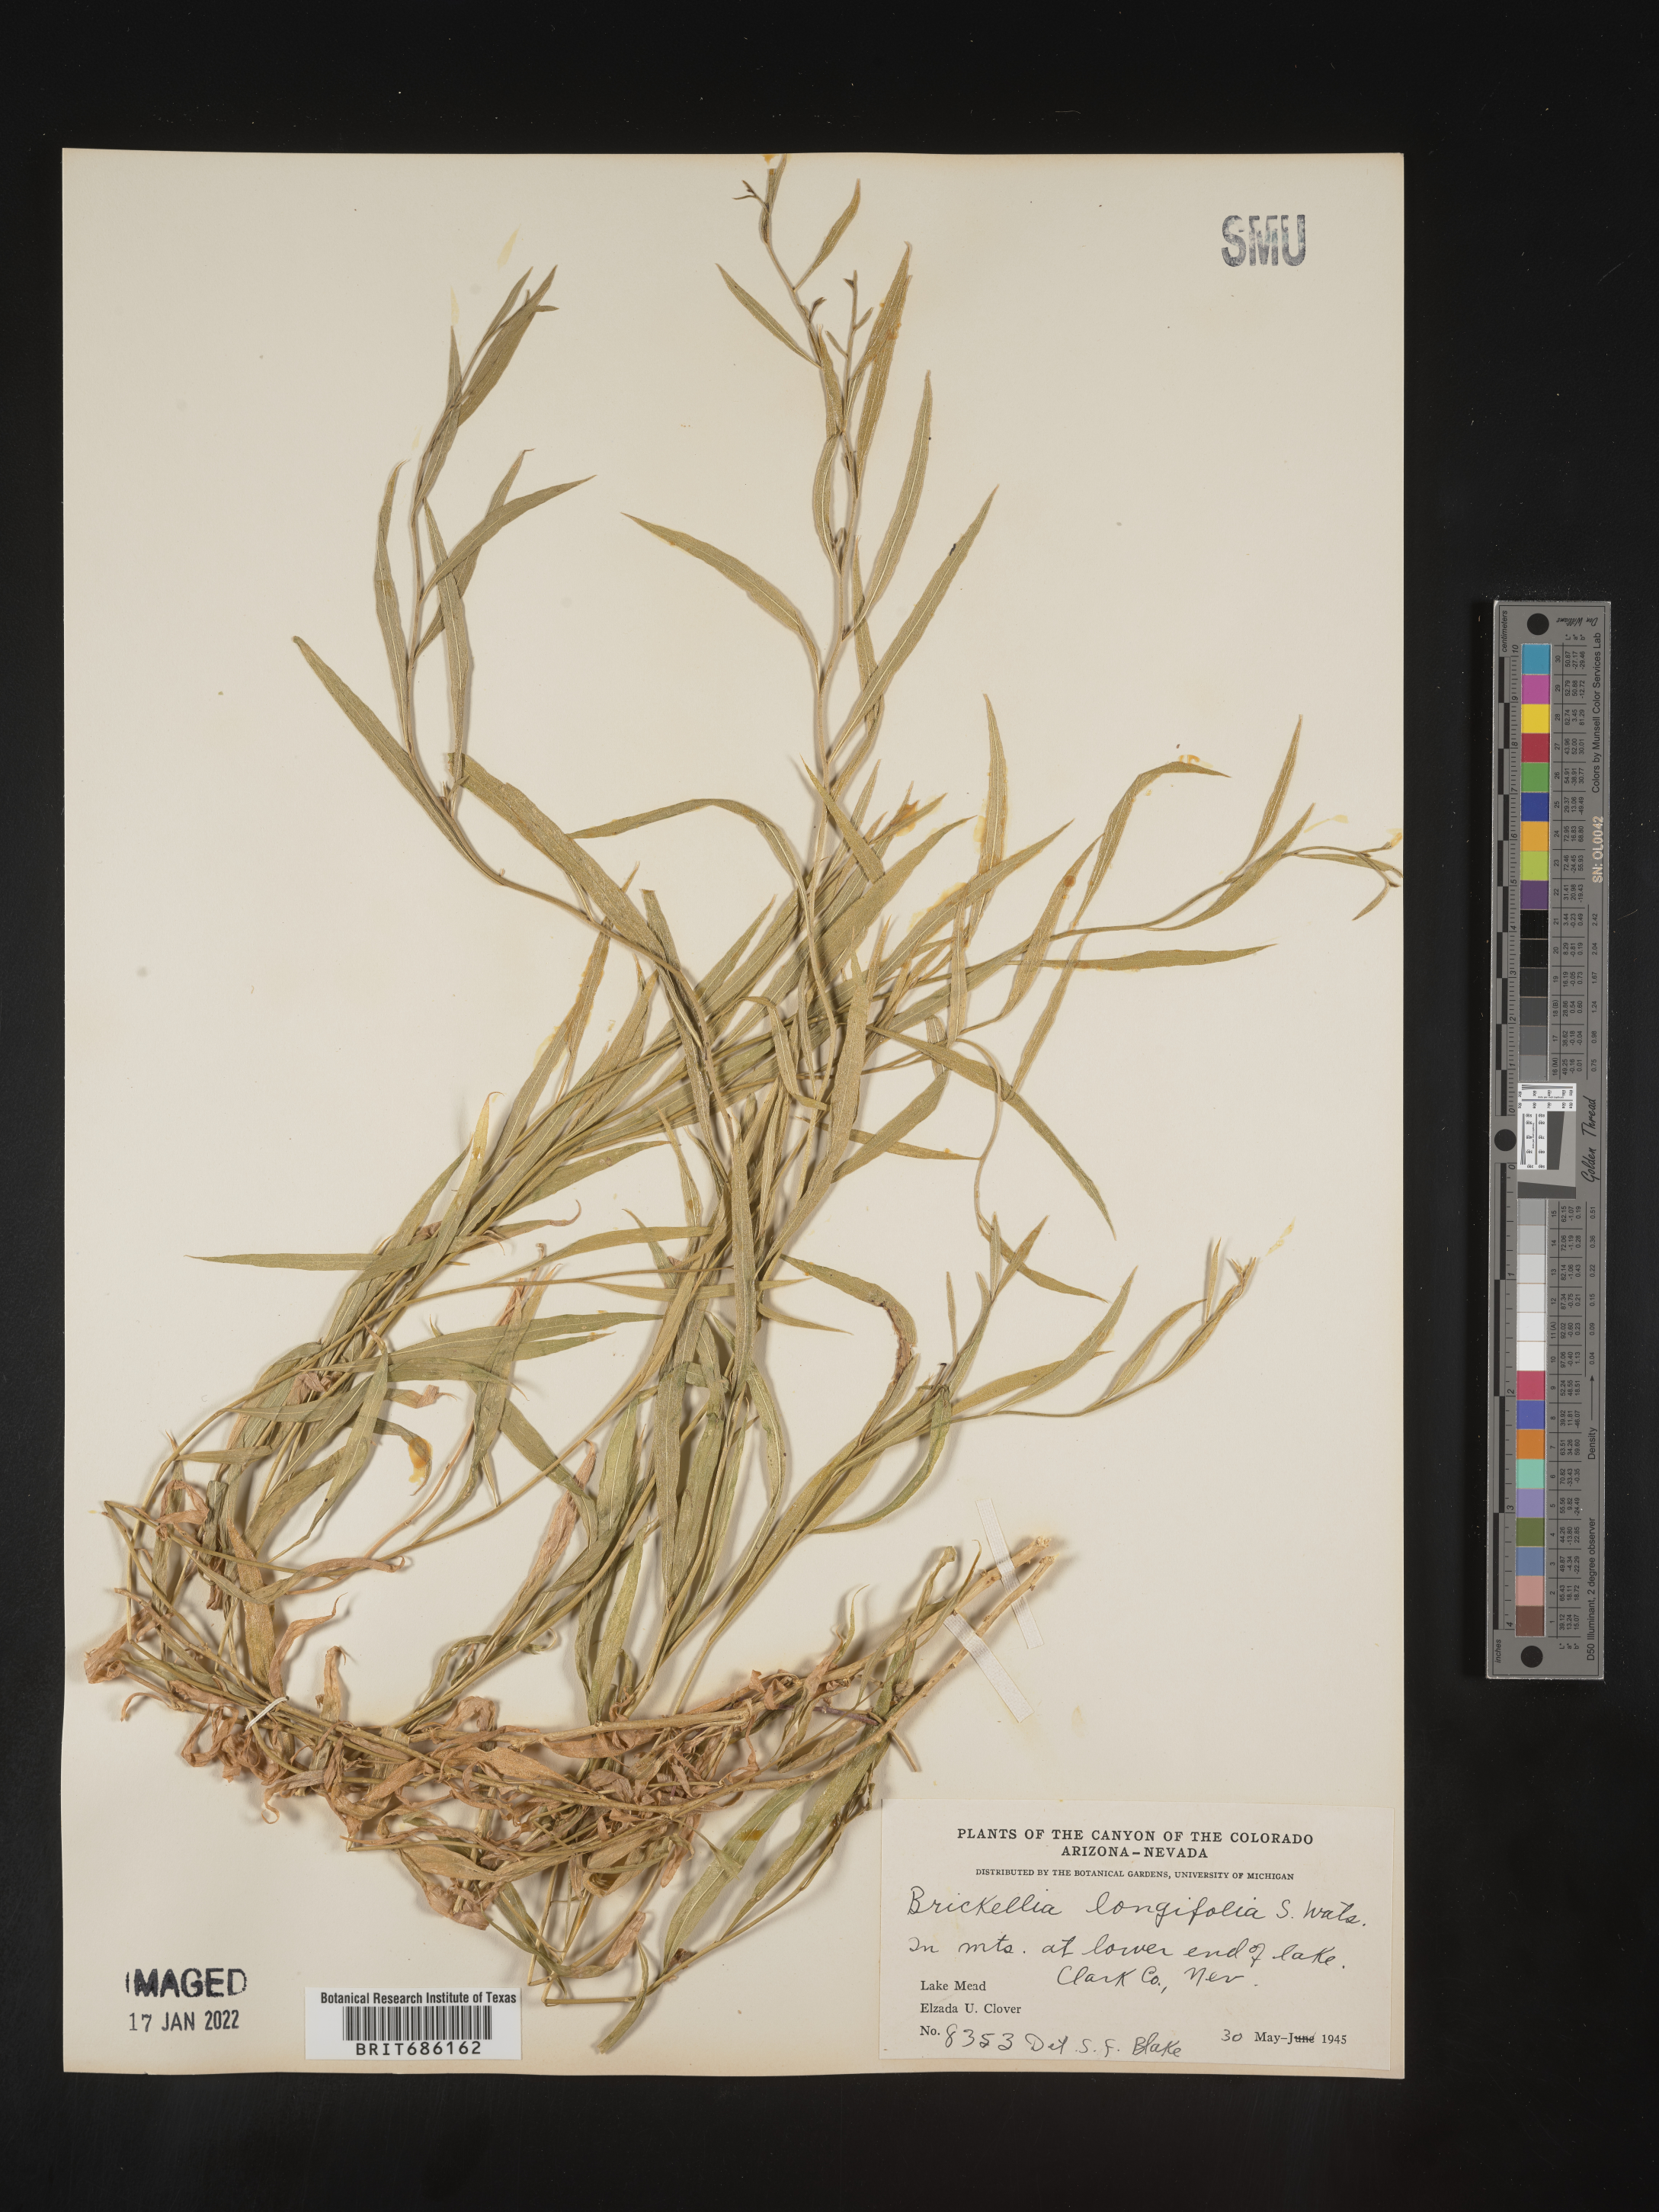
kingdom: Plantae
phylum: Tracheophyta
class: Magnoliopsida
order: Asterales
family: Asteraceae
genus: Brickellia
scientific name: Brickellia longifolia
